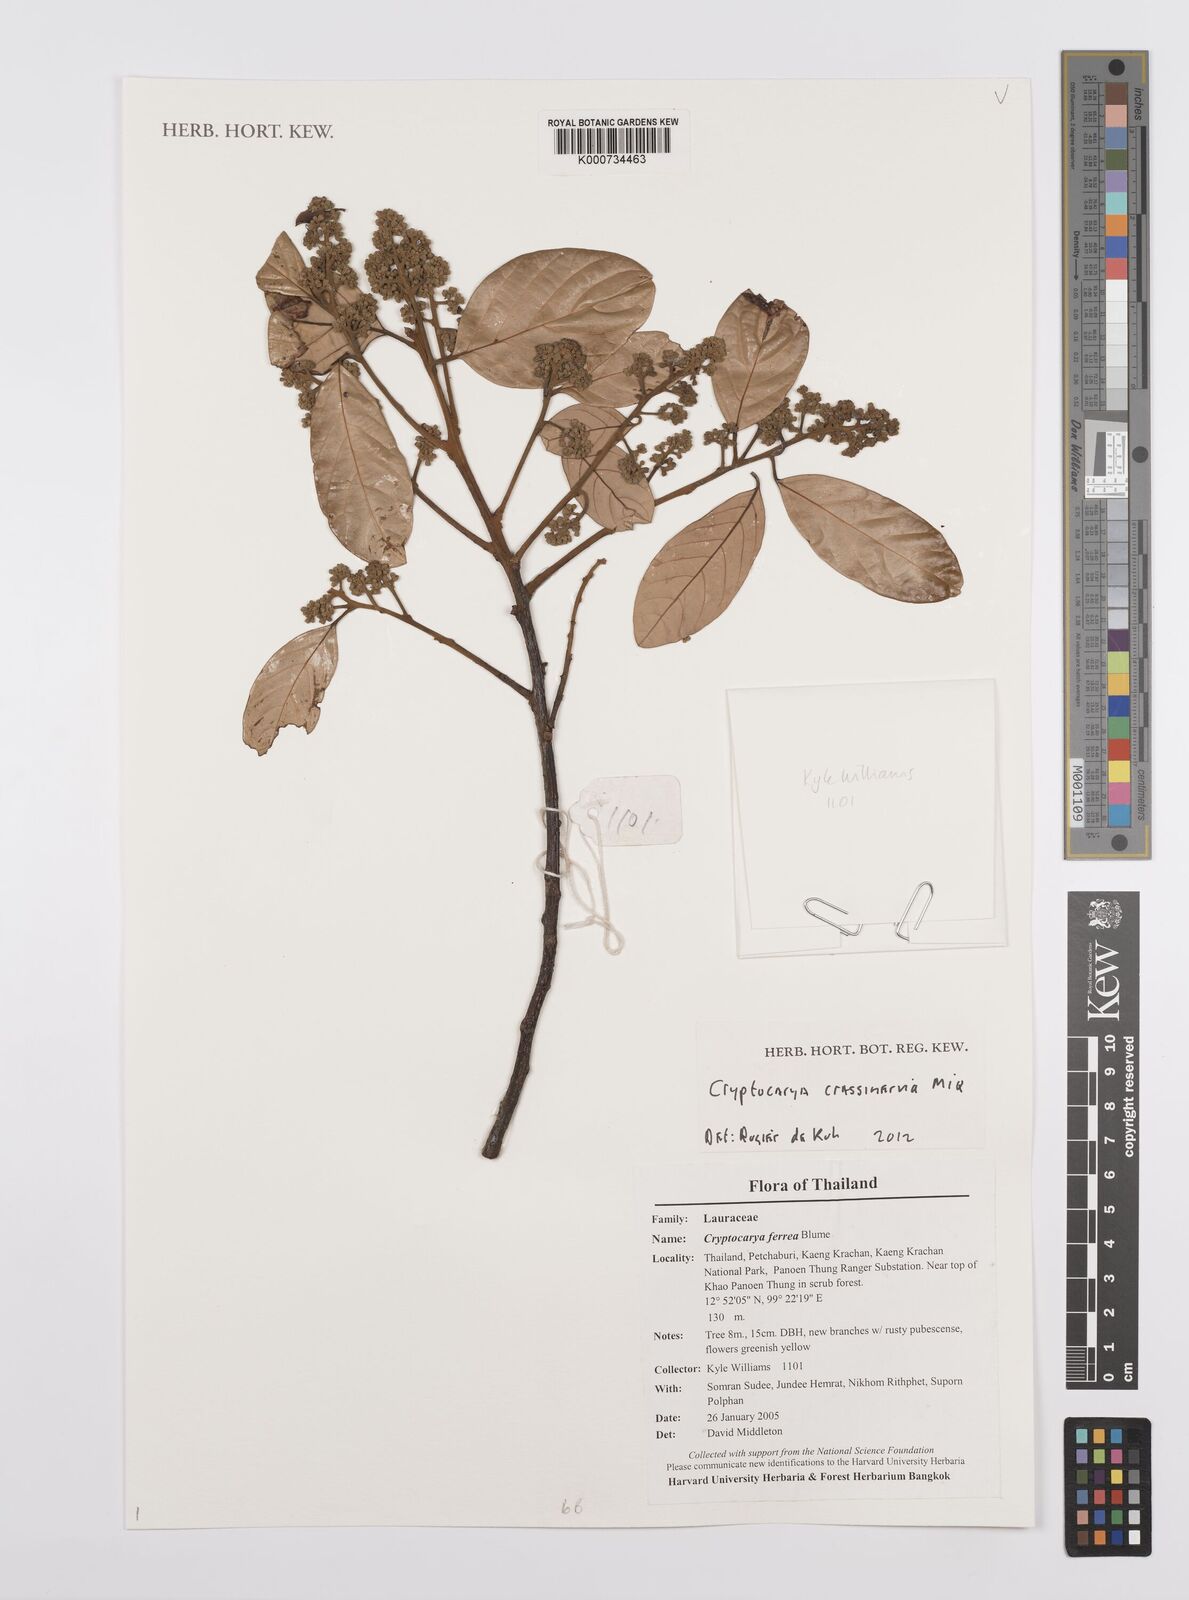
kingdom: Plantae
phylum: Tracheophyta
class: Magnoliopsida
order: Laurales
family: Lauraceae
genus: Cryptocarya
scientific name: Cryptocarya diversifolia
